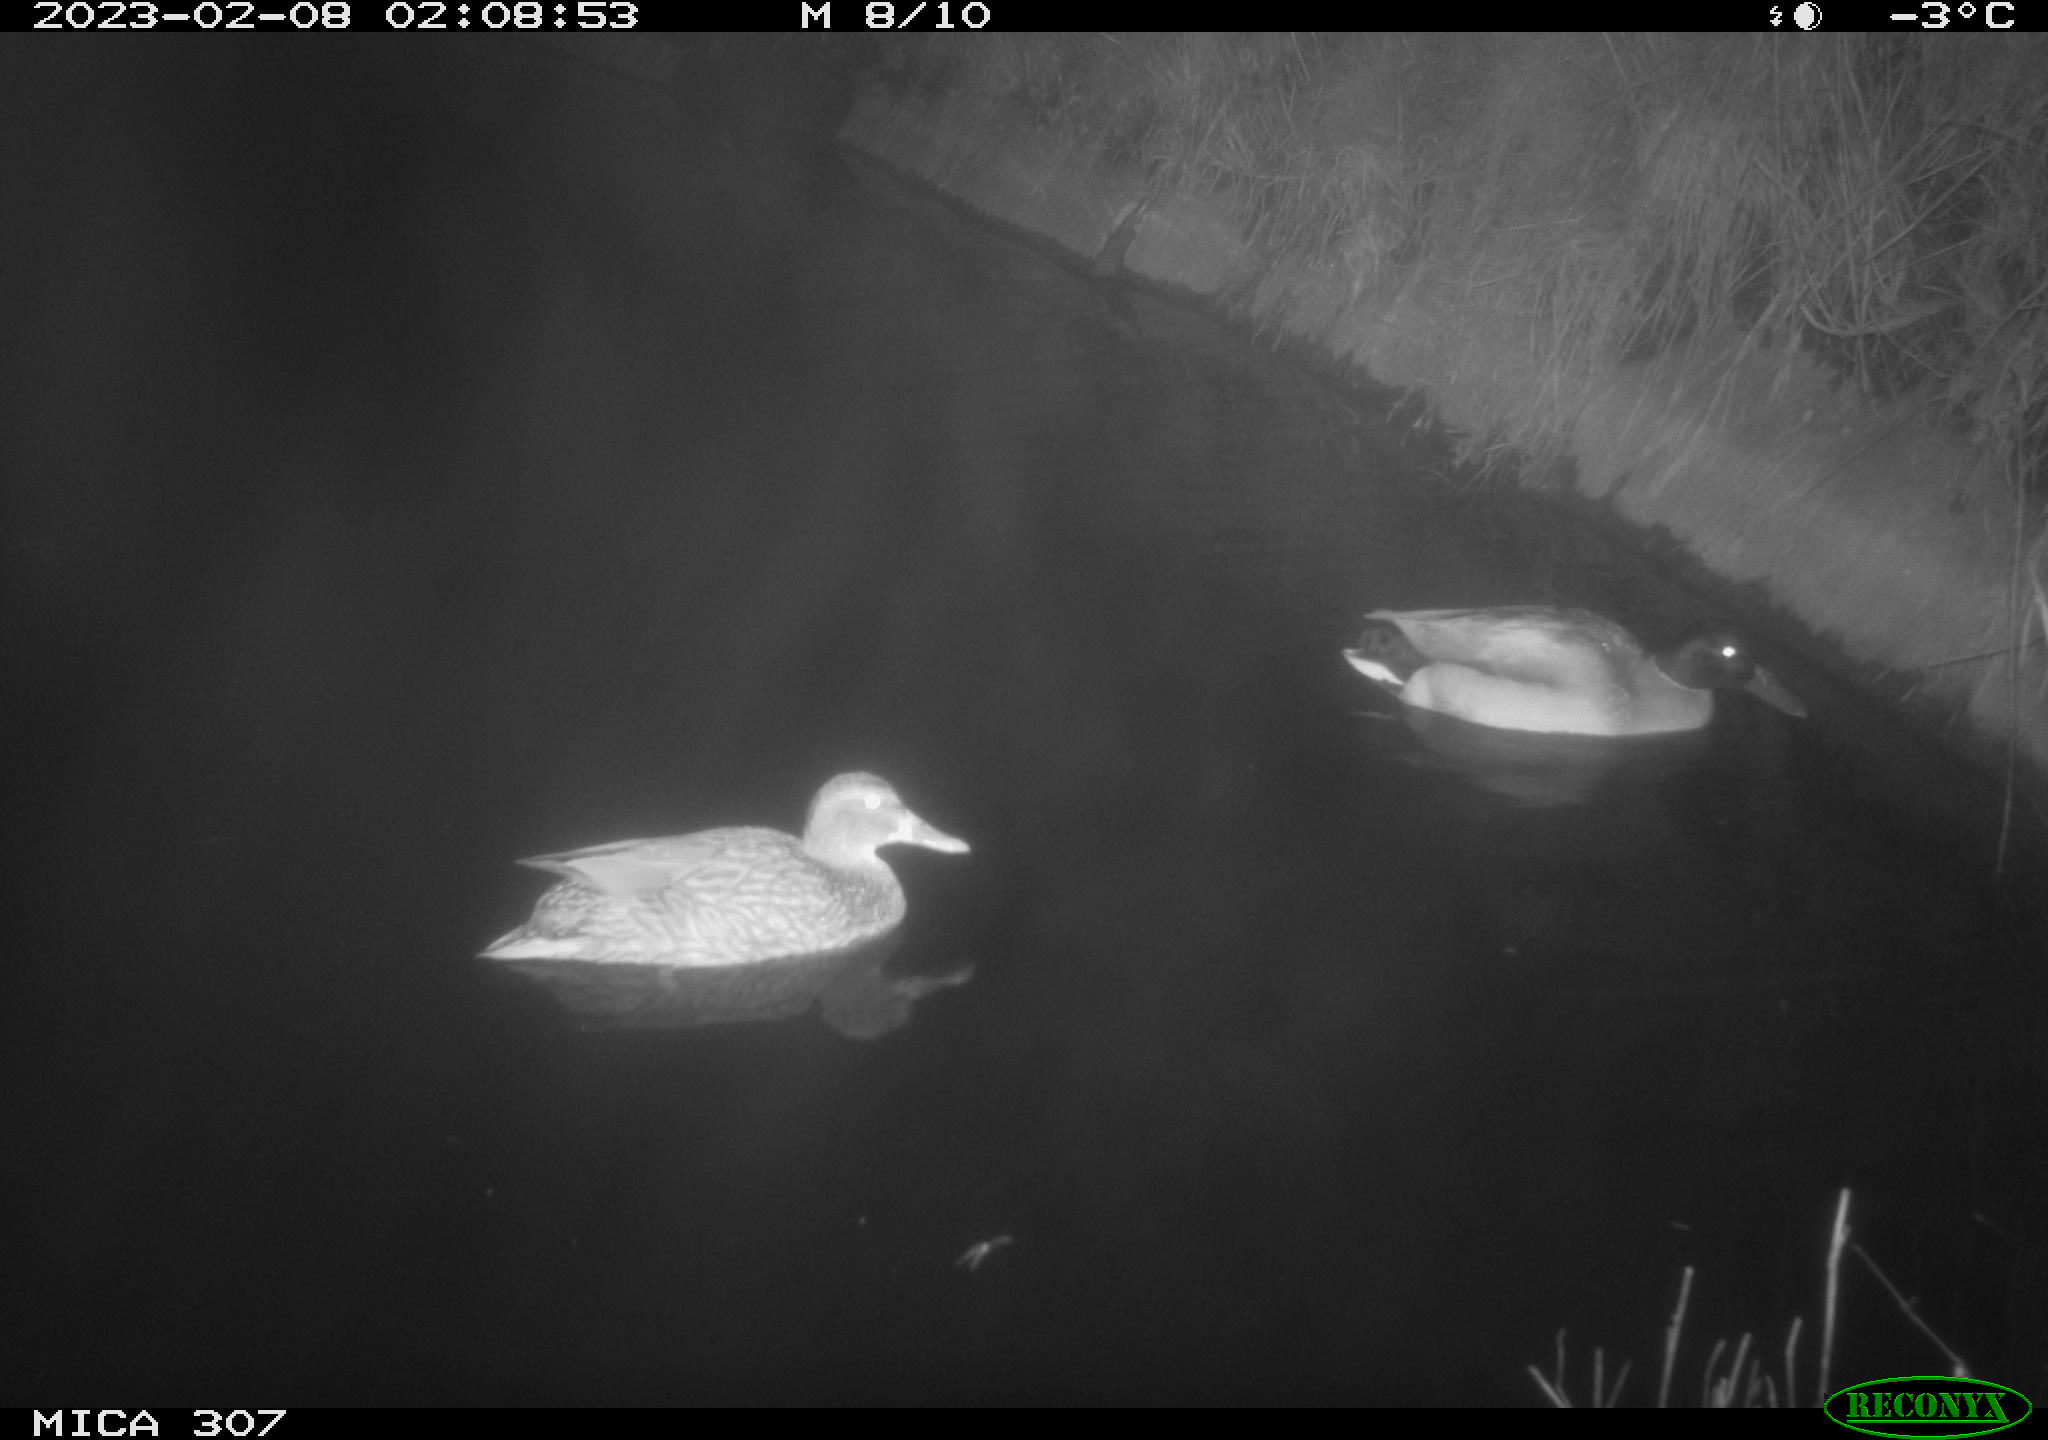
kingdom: Animalia
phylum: Chordata
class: Aves
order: Anseriformes
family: Anatidae
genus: Anas
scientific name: Anas
